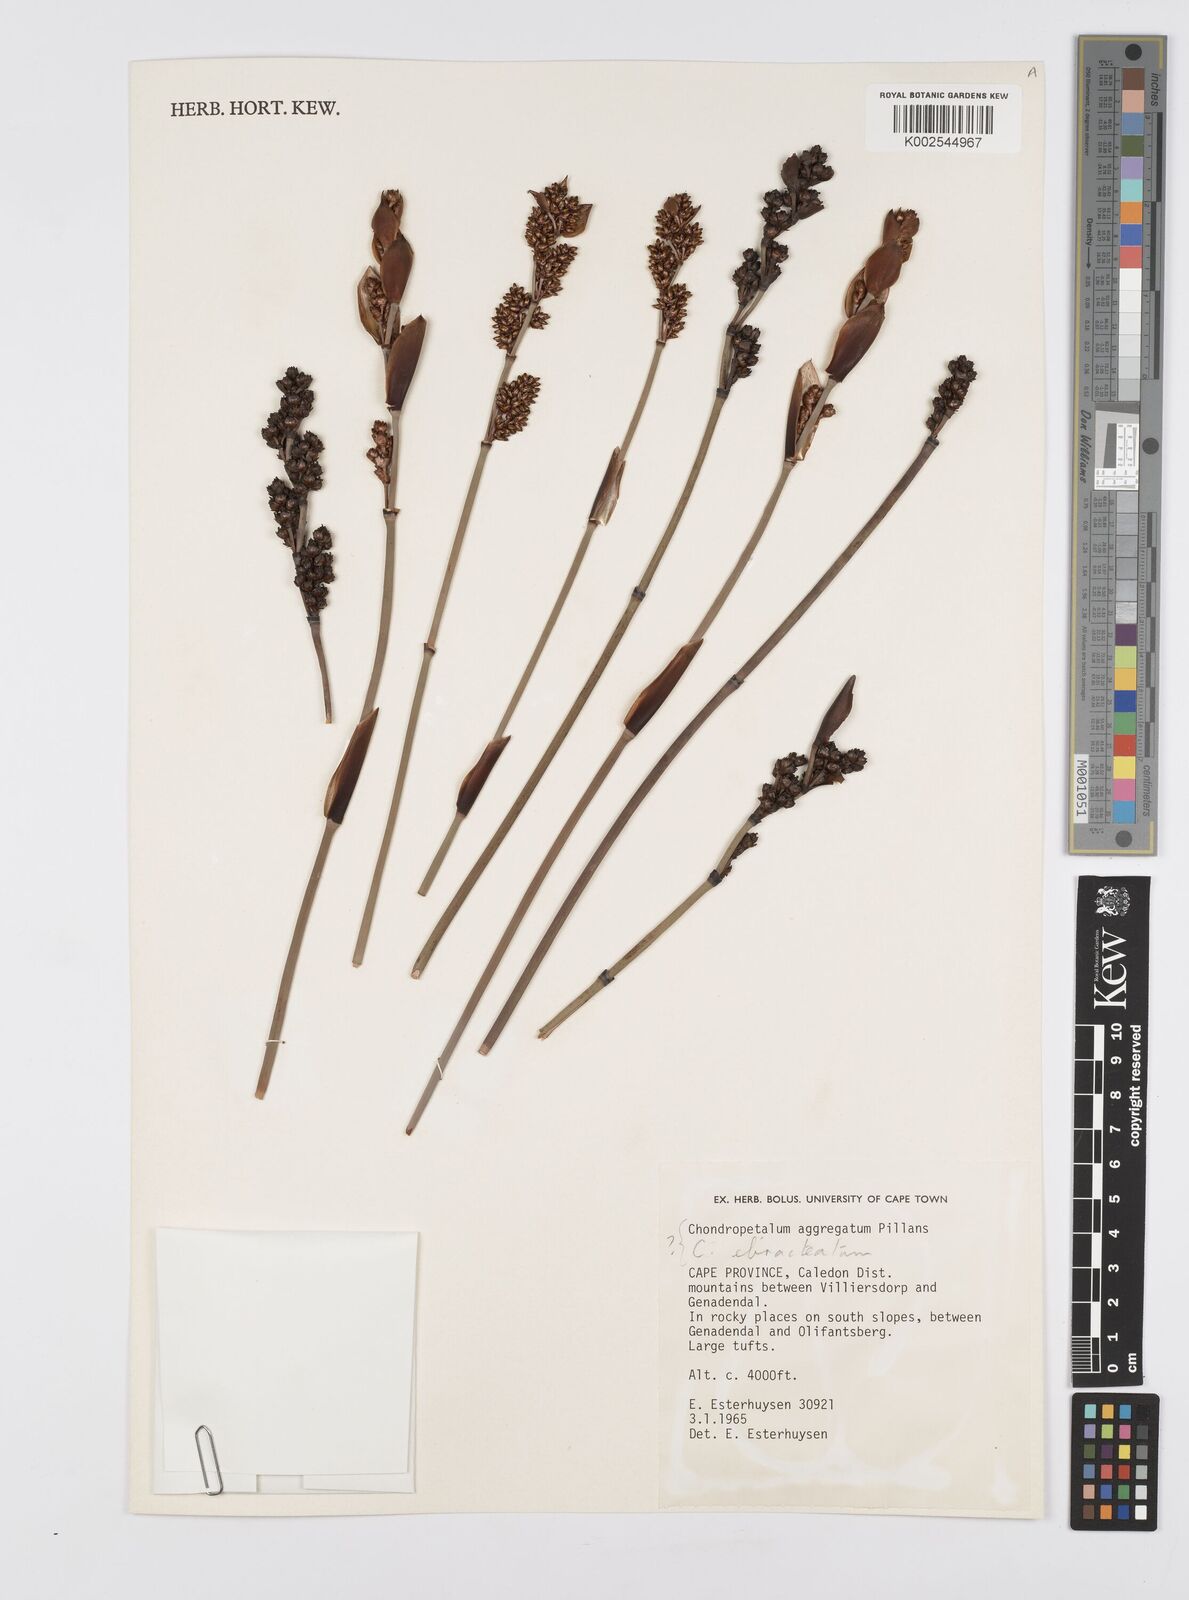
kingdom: Plantae
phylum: Tracheophyta
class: Liliopsida
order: Poales
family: Restionaceae
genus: Elegia
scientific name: Elegia aggregata
